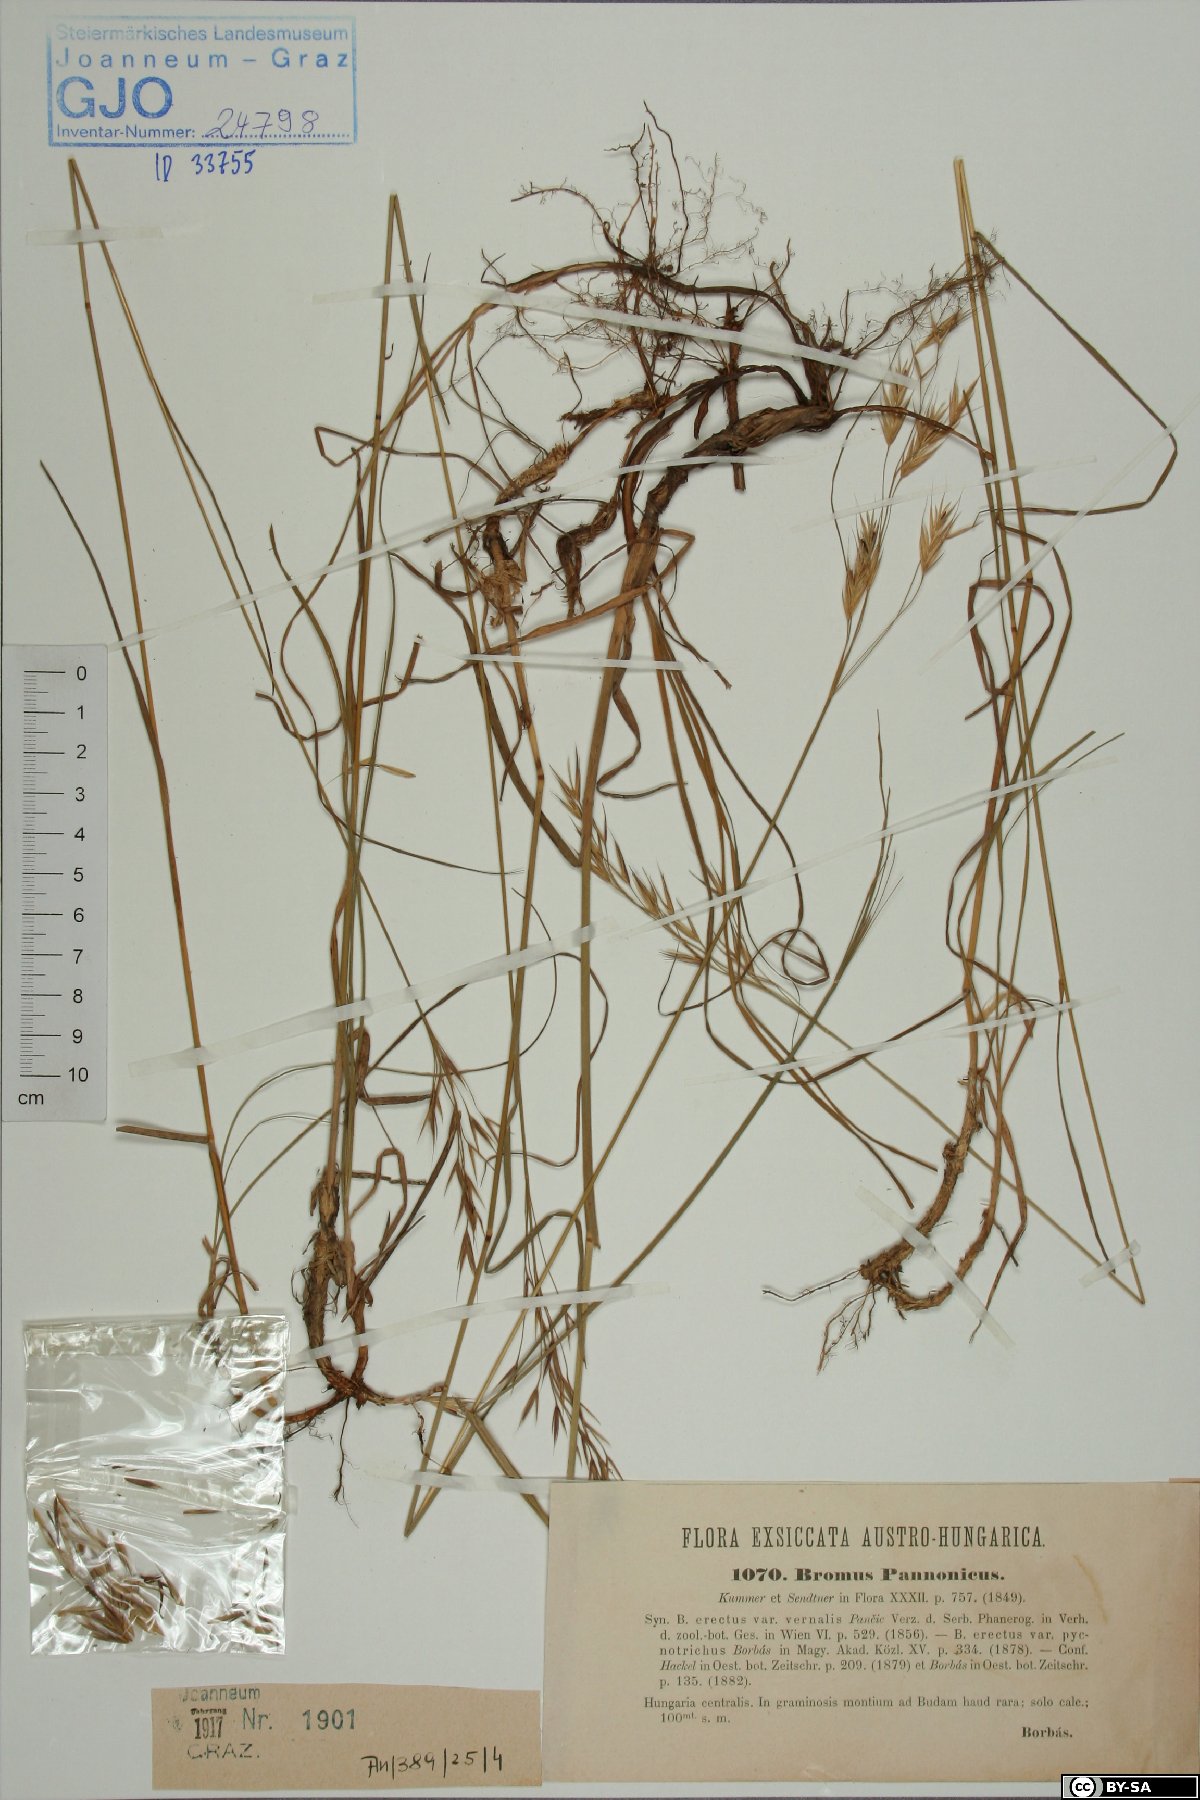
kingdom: Plantae
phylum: Tracheophyta
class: Liliopsida
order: Poales
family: Poaceae
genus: Bromus
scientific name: Bromus pannonicus
